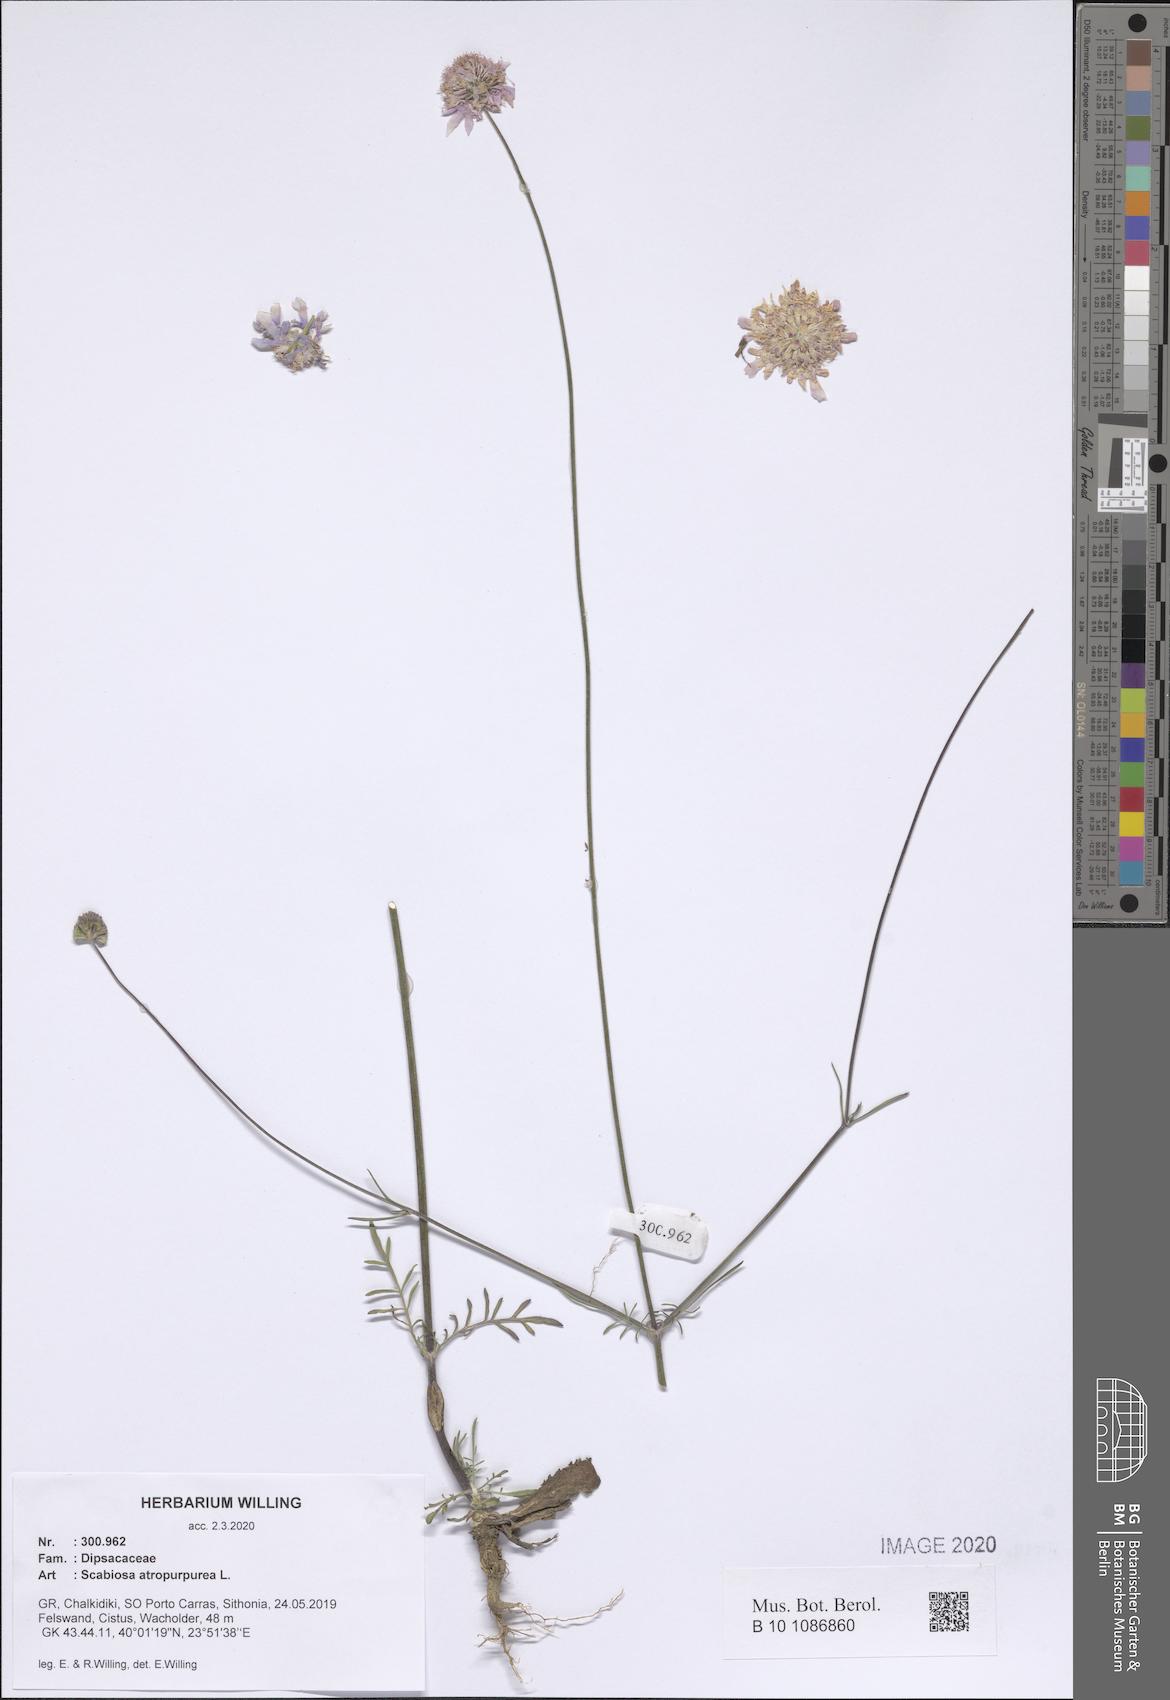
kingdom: Plantae
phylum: Tracheophyta
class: Magnoliopsida
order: Dipsacales
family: Caprifoliaceae
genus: Sixalix
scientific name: Sixalix atropurpurea
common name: Sweet scabious
